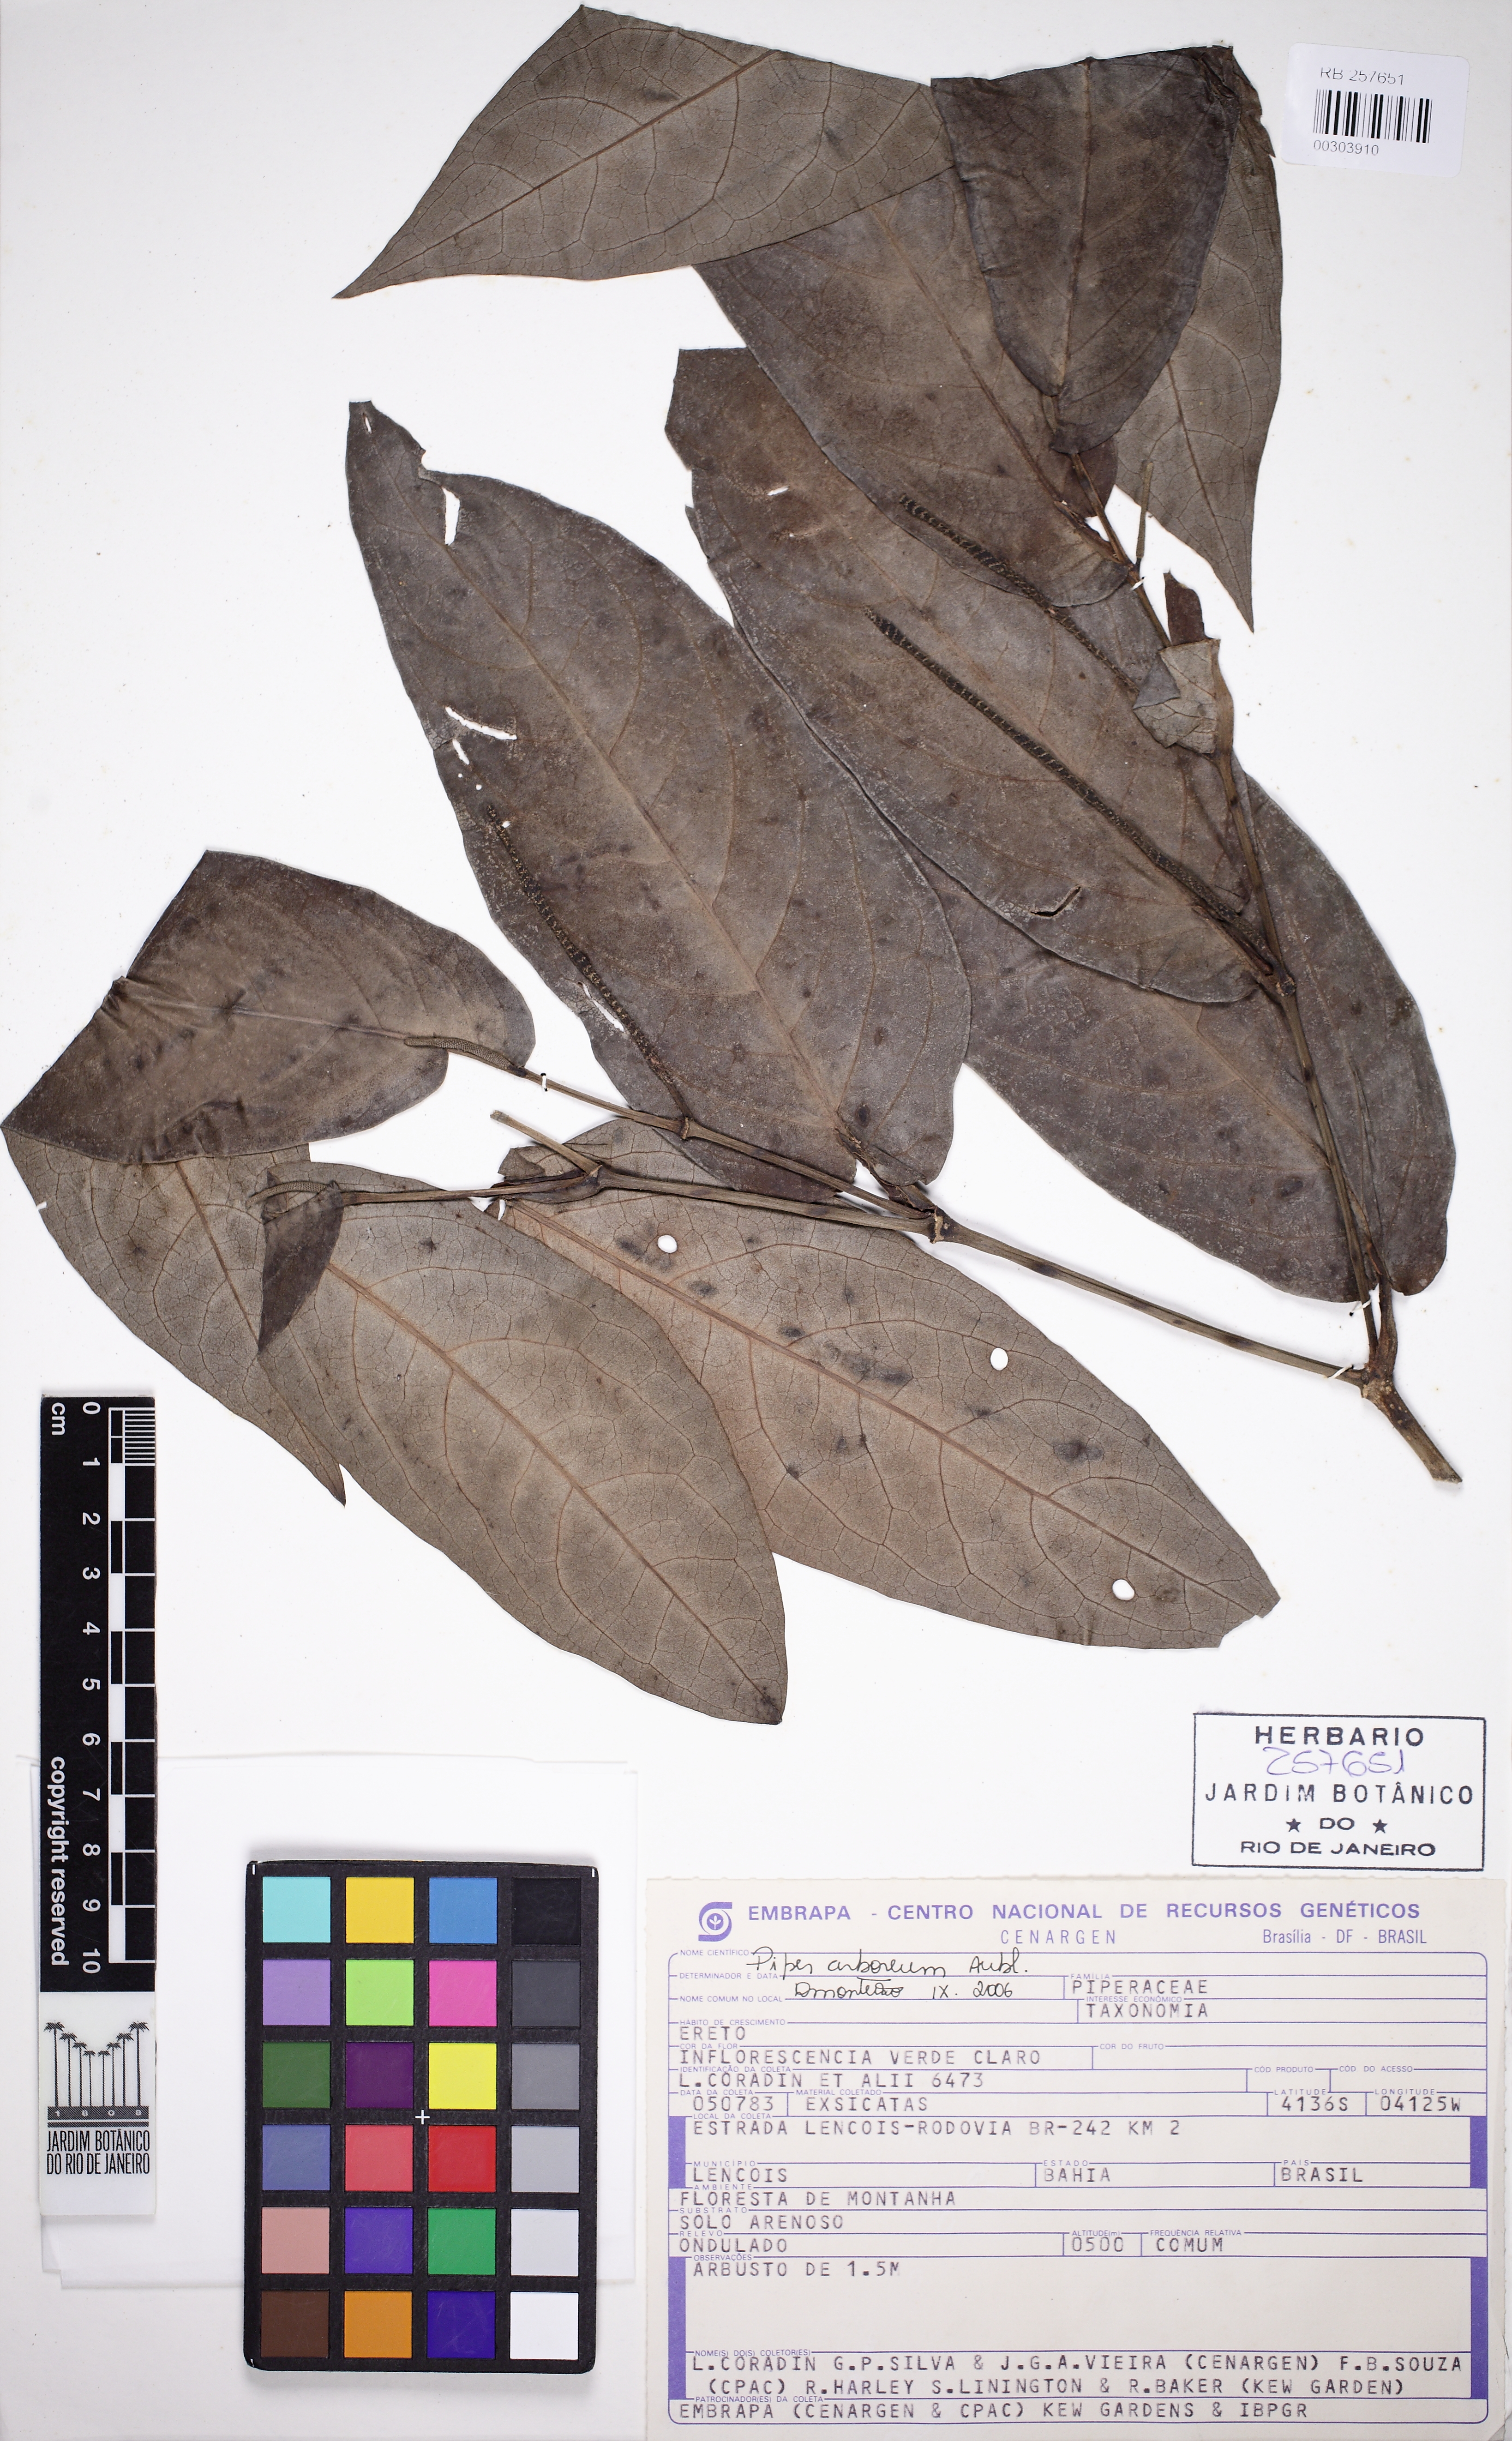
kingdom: Plantae
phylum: Tracheophyta
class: Magnoliopsida
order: Piperales
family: Piperaceae
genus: Piper
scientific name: Piper arboreum
